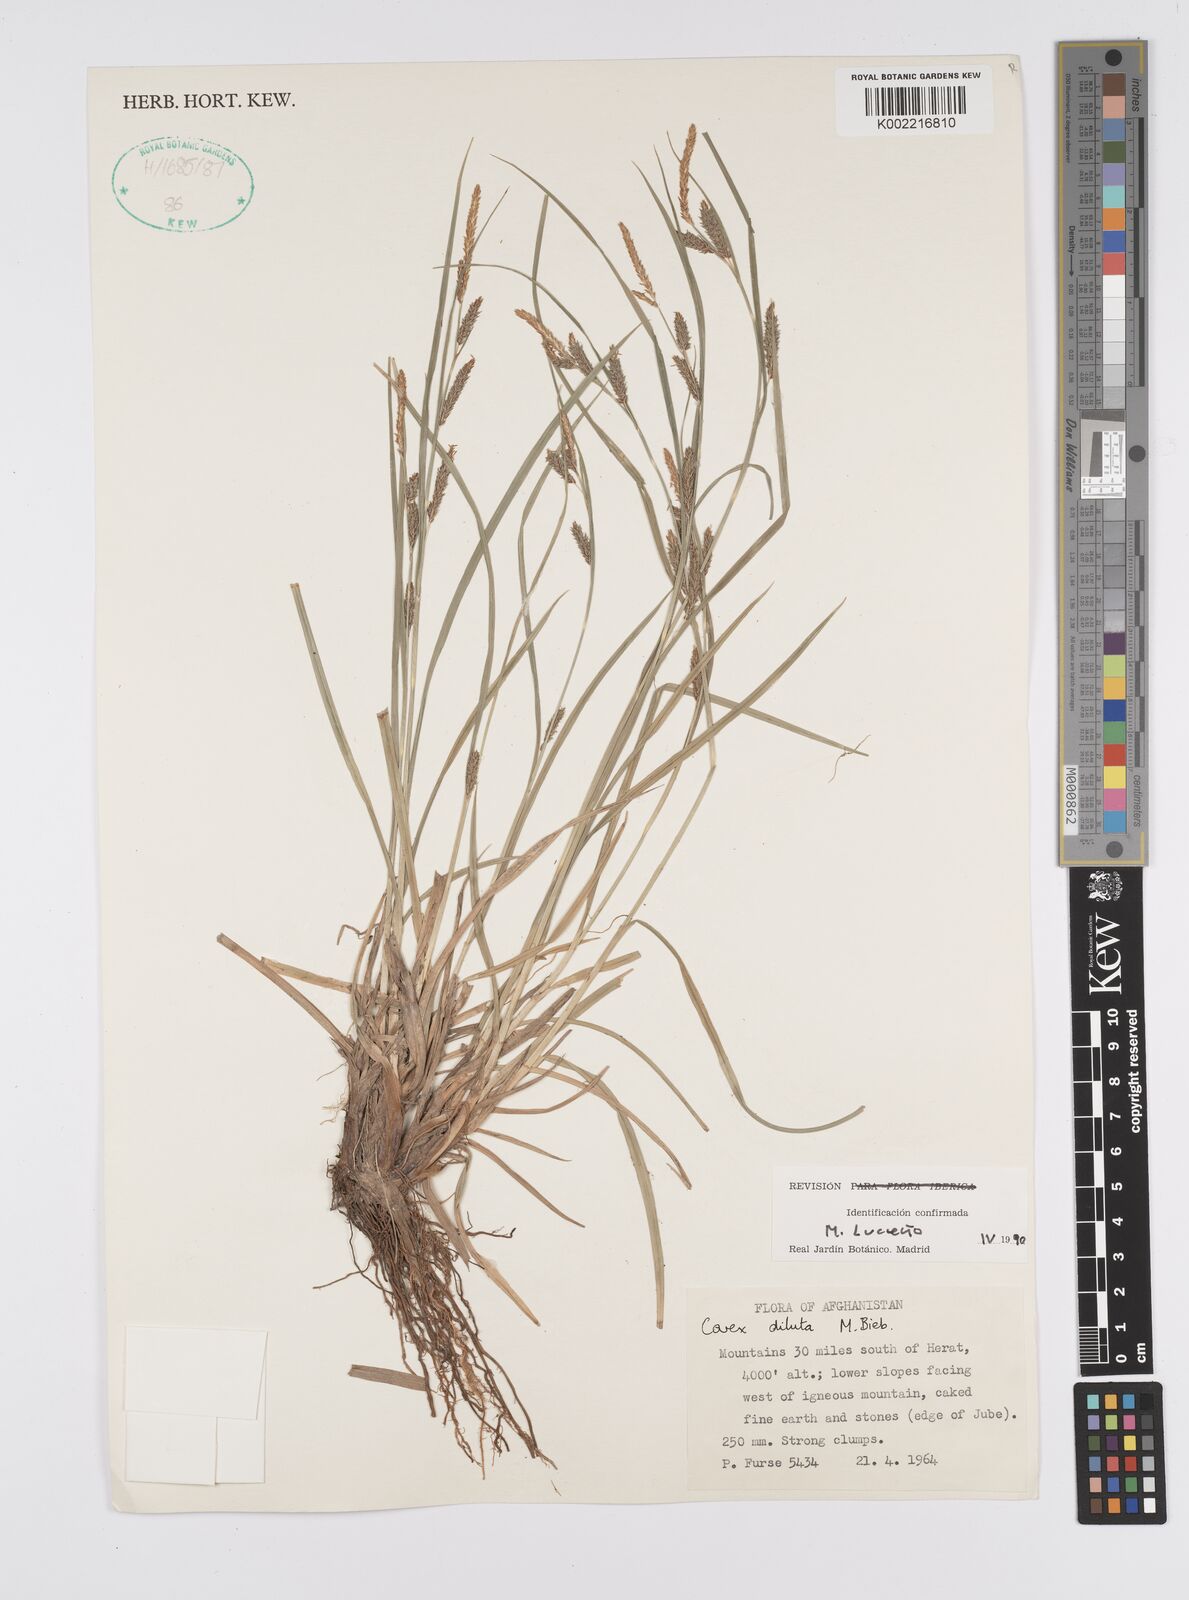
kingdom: Plantae
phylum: Tracheophyta
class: Liliopsida
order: Poales
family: Cyperaceae
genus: Carex
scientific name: Carex diluta
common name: Sedge
